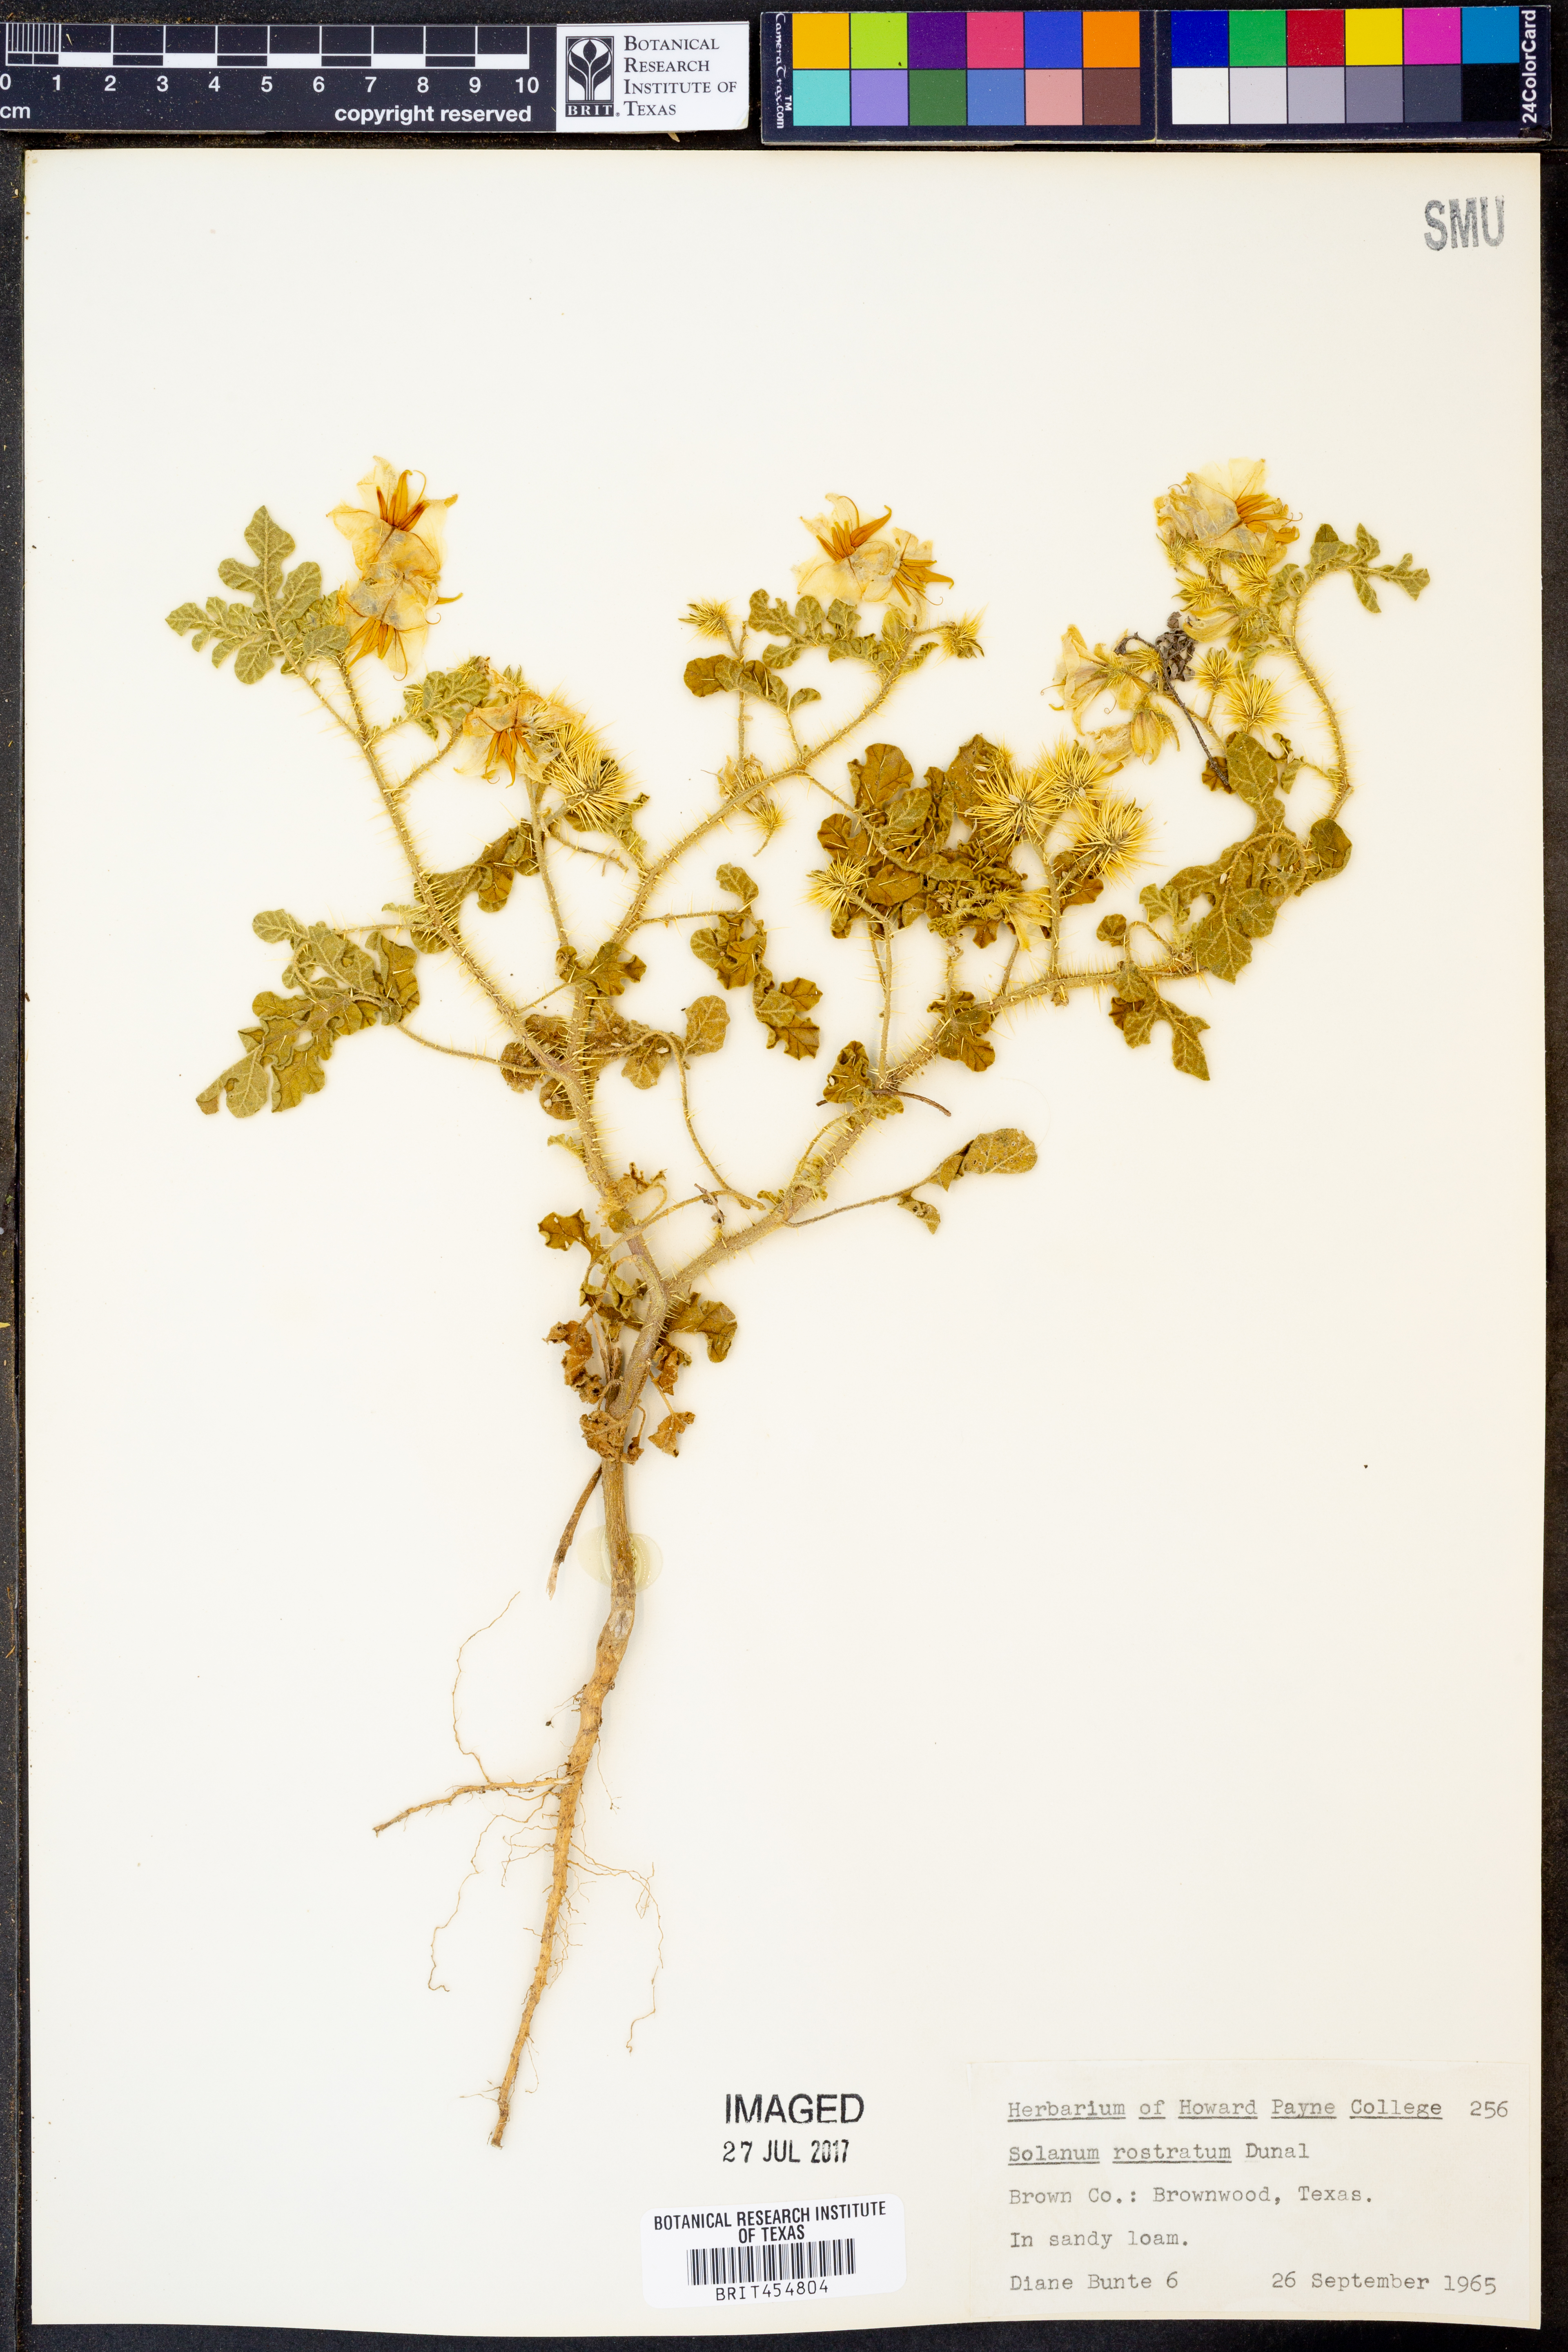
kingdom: Plantae
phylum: Tracheophyta
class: Magnoliopsida
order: Solanales
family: Solanaceae
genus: Solanum
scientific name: Solanum angustifolium
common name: Buffalobur nightshade
